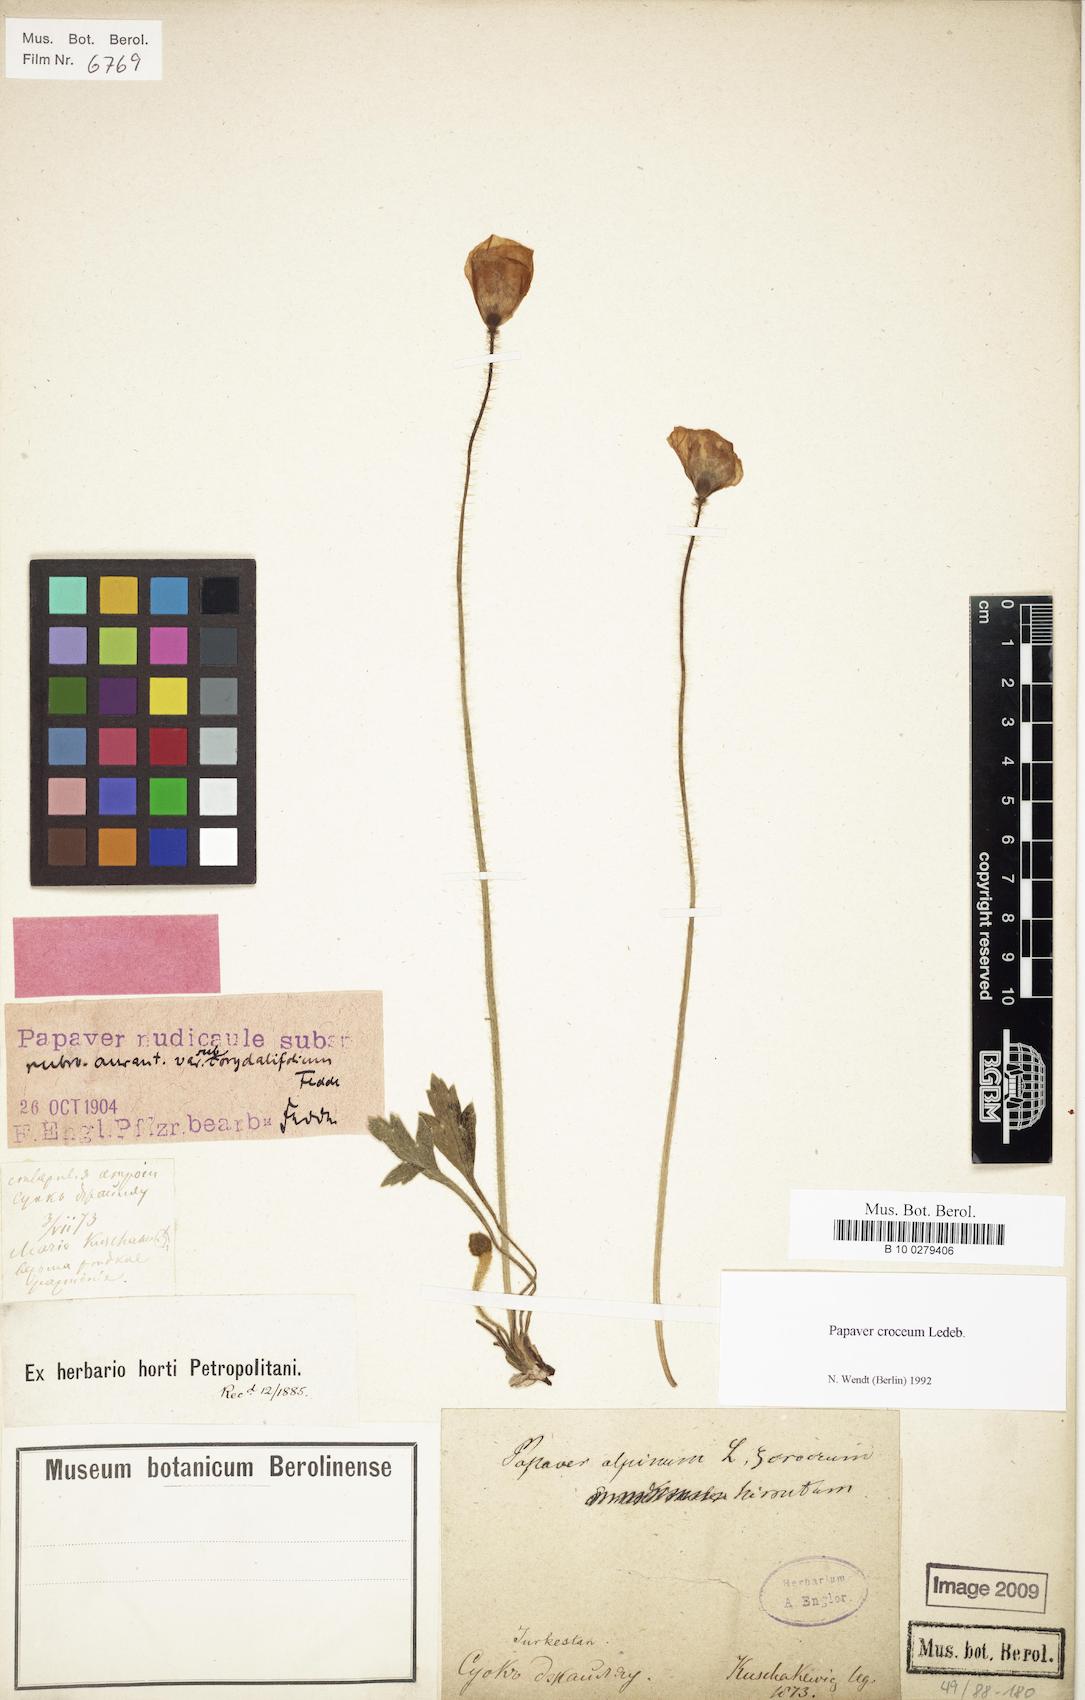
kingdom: Plantae
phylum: Tracheophyta
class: Magnoliopsida
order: Ranunculales
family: Papaveraceae
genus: Papaver
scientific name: Papaver croceum
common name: Siberian poppy
